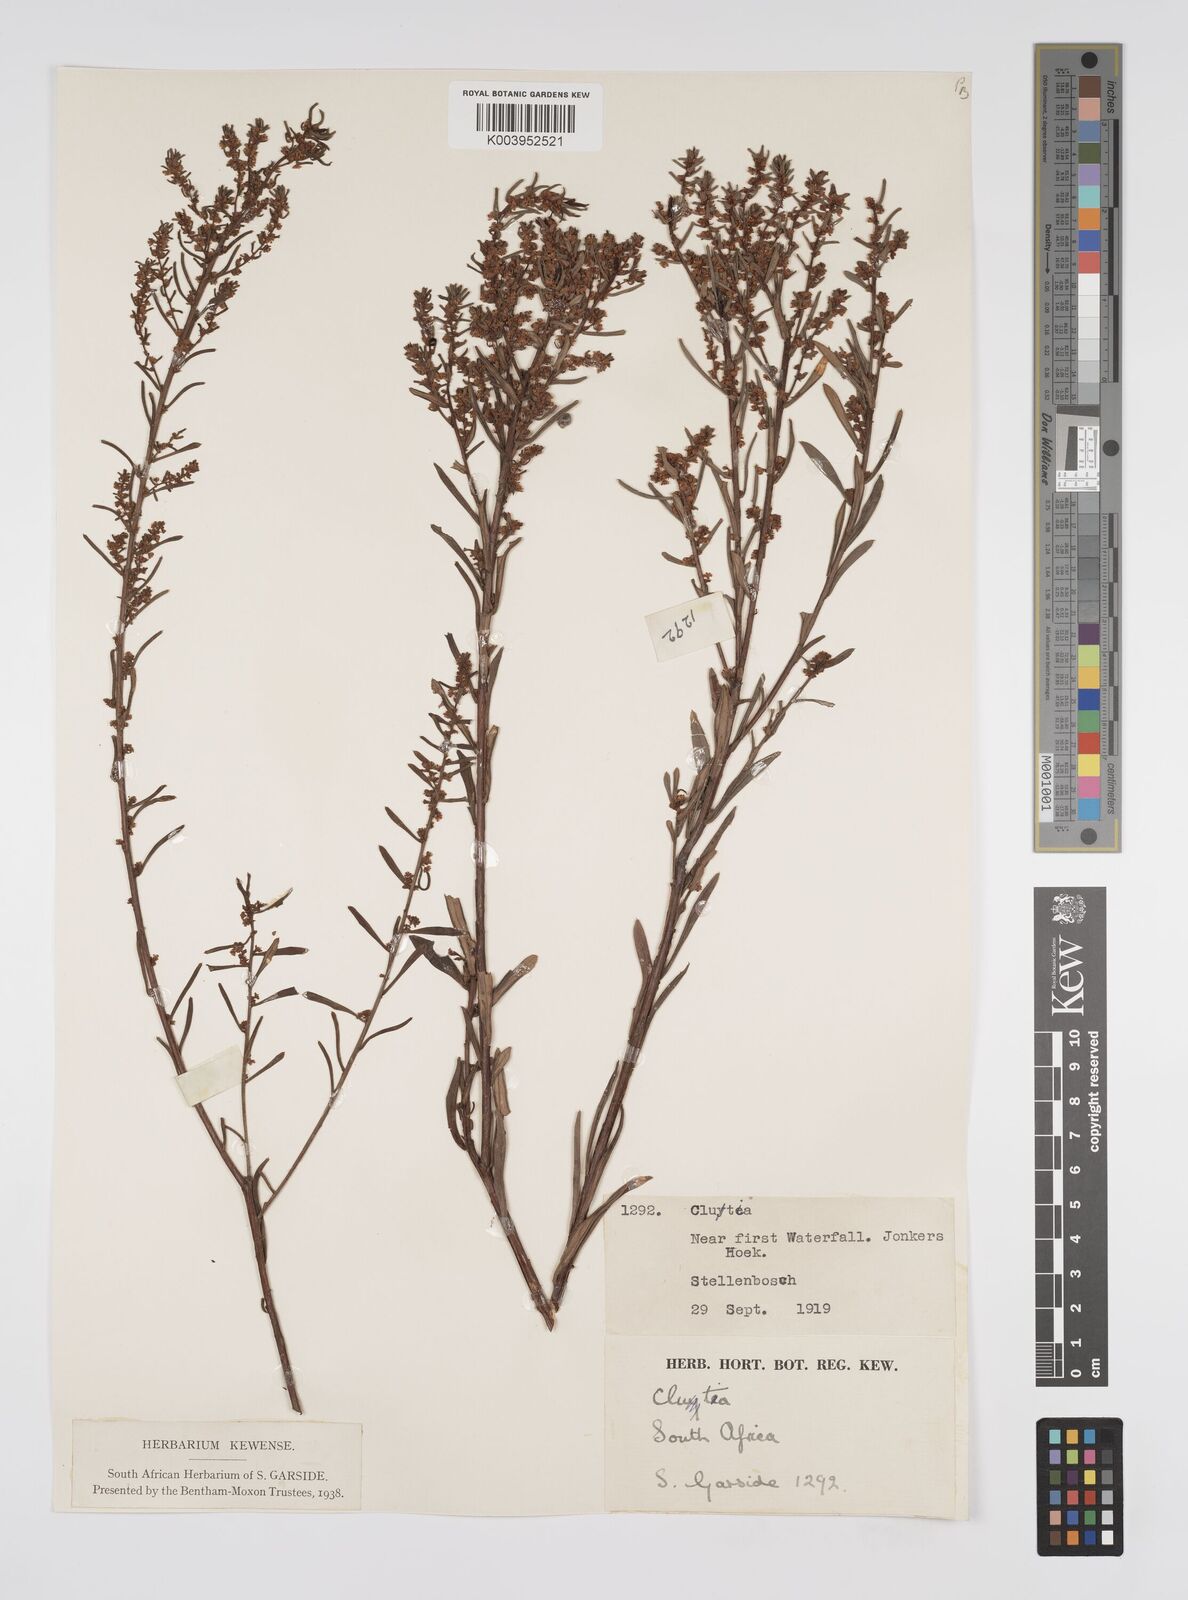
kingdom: Plantae
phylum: Tracheophyta
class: Magnoliopsida
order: Malpighiales
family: Peraceae
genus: Clutia
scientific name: Clutia
